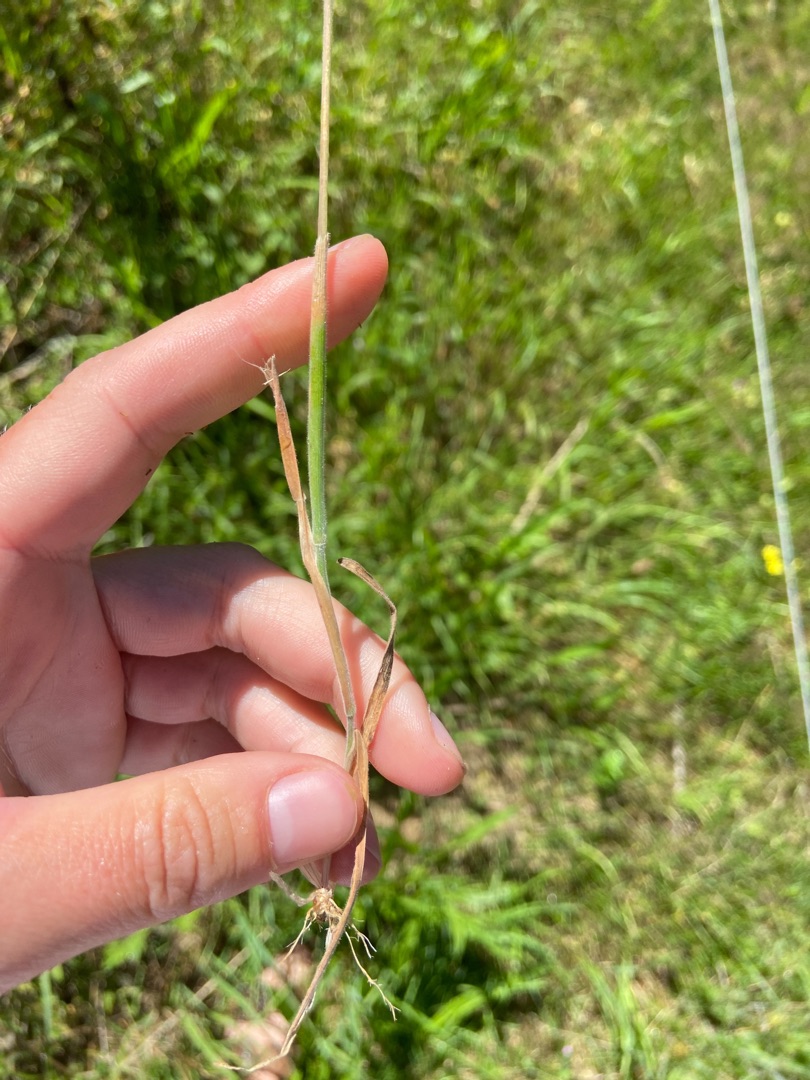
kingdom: Plantae
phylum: Tracheophyta
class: Liliopsida
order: Poales
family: Poaceae
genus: Holcus
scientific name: Holcus lanatus
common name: Fløjlsgræs
